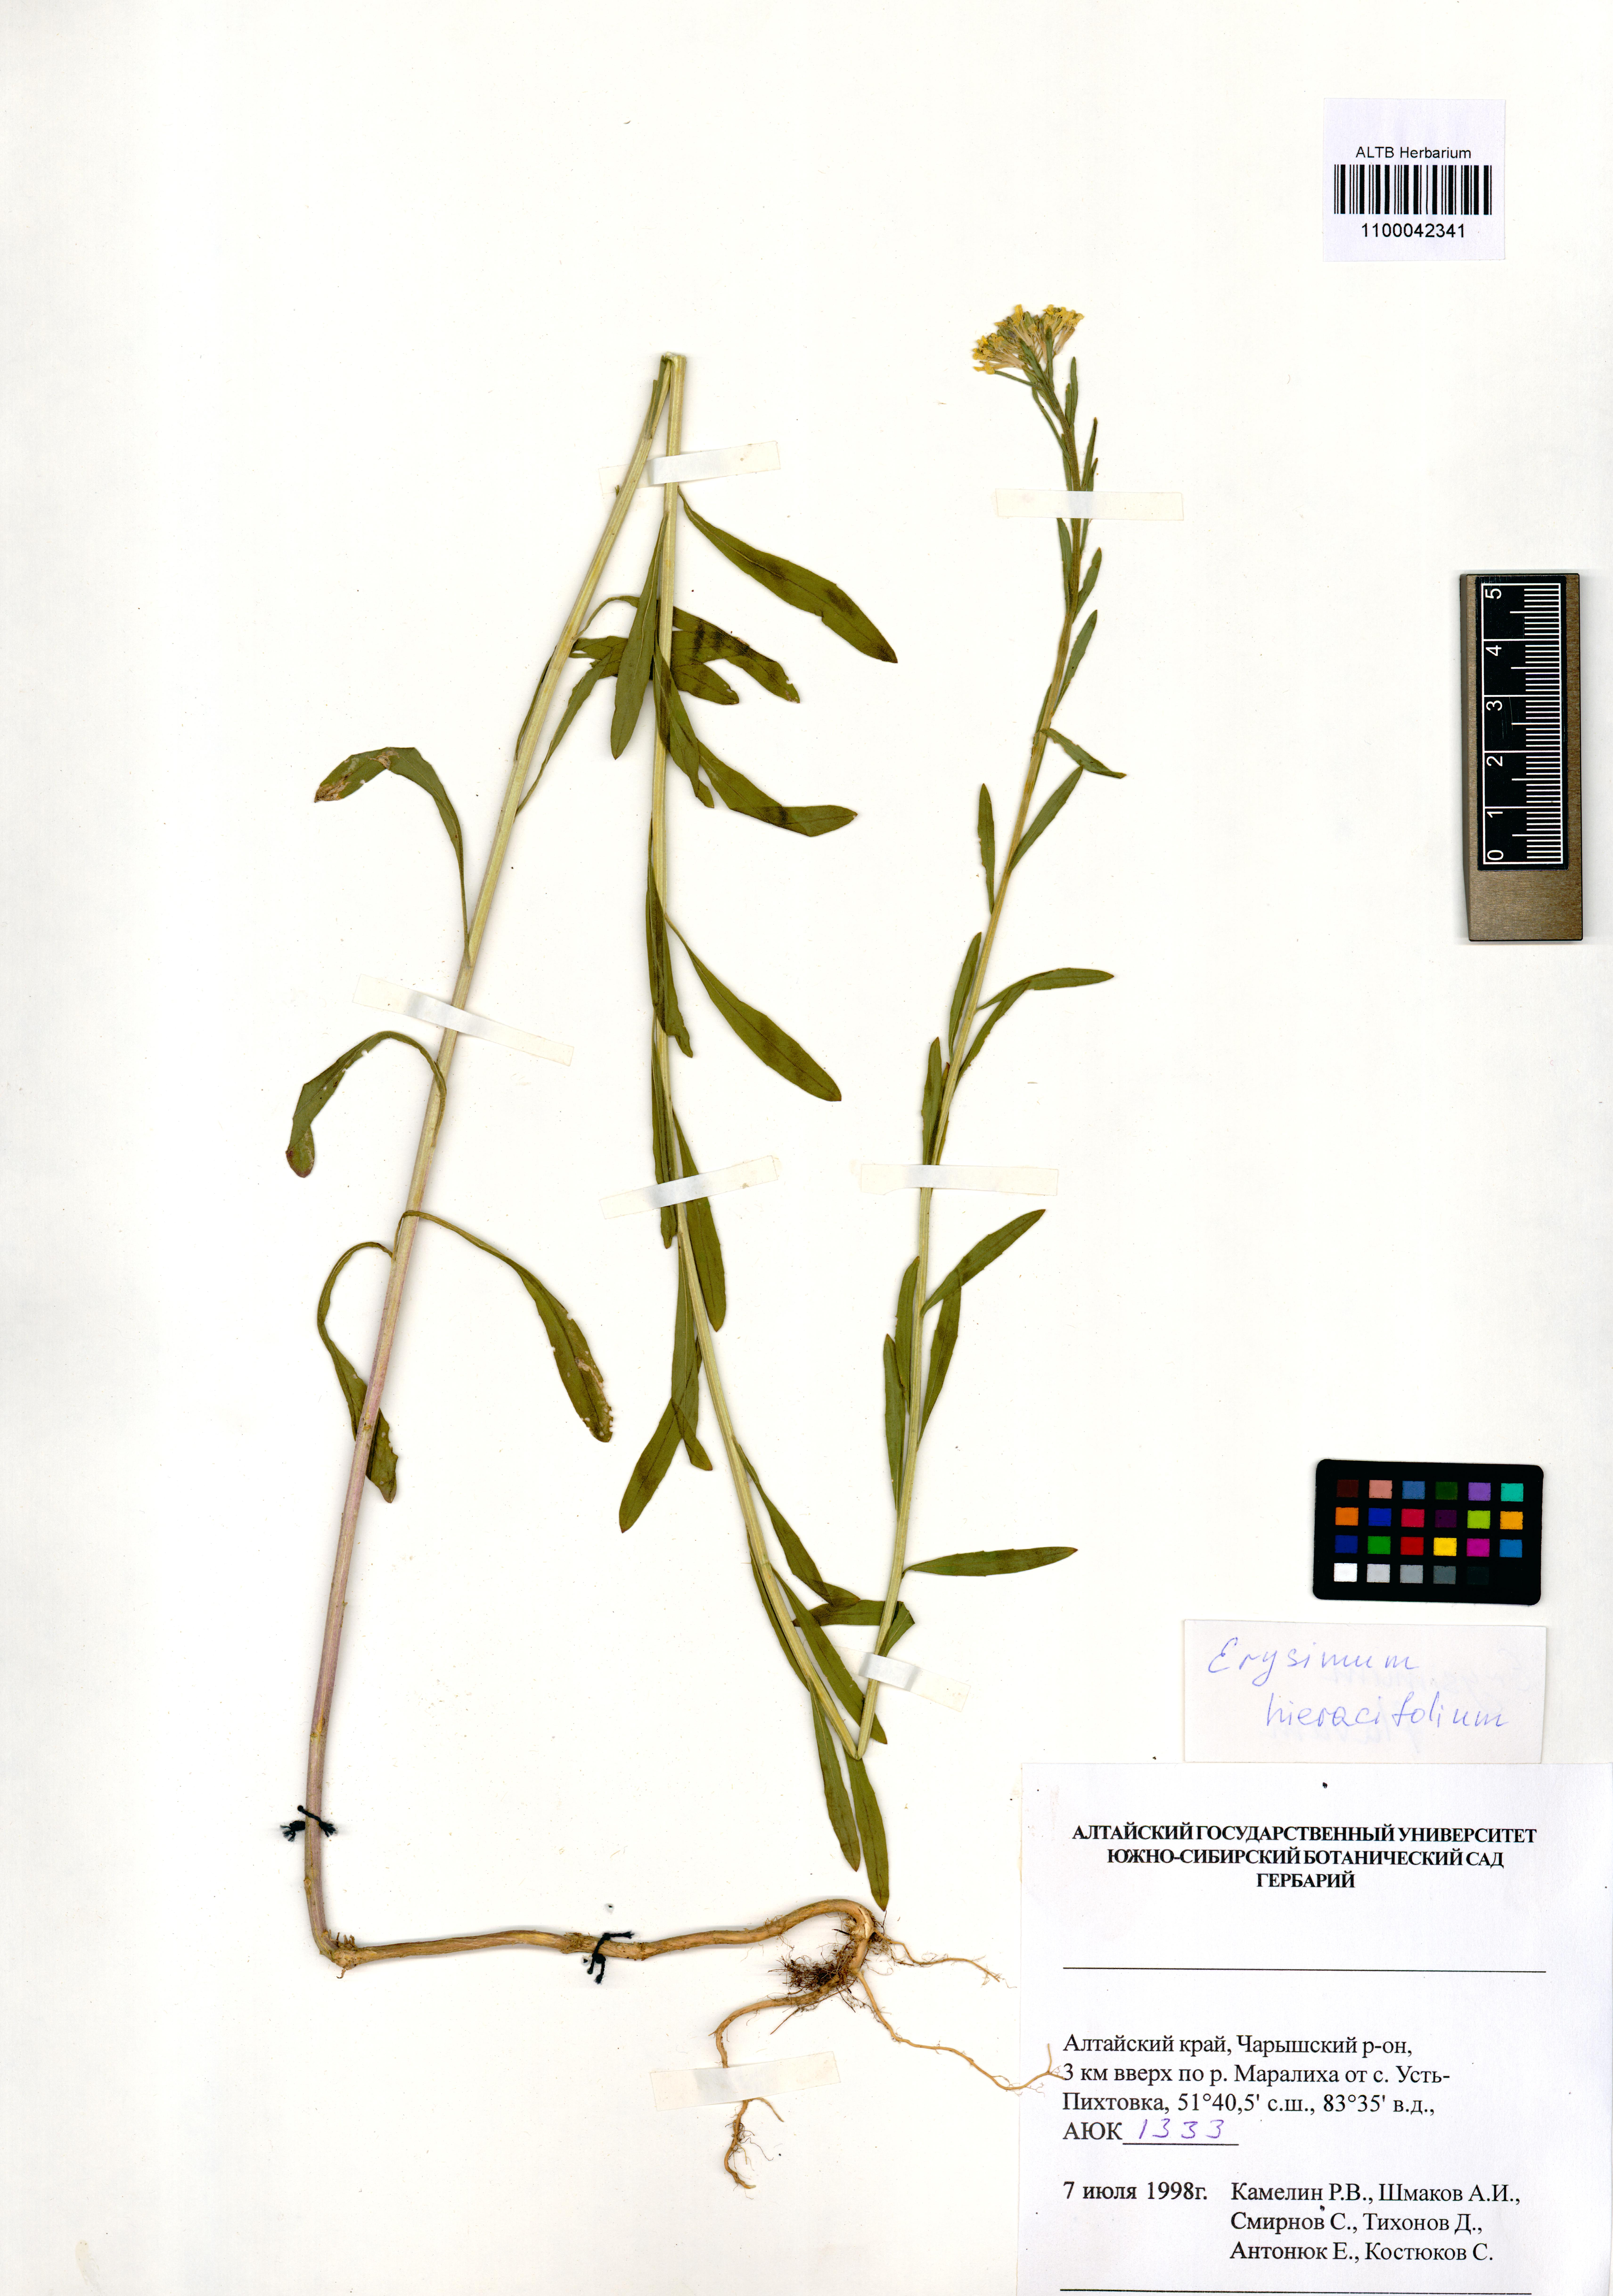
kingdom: Plantae
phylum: Tracheophyta
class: Magnoliopsida
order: Brassicales
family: Brassicaceae
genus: Erysimum
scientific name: Erysimum hieraciifolium
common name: European wallflower
